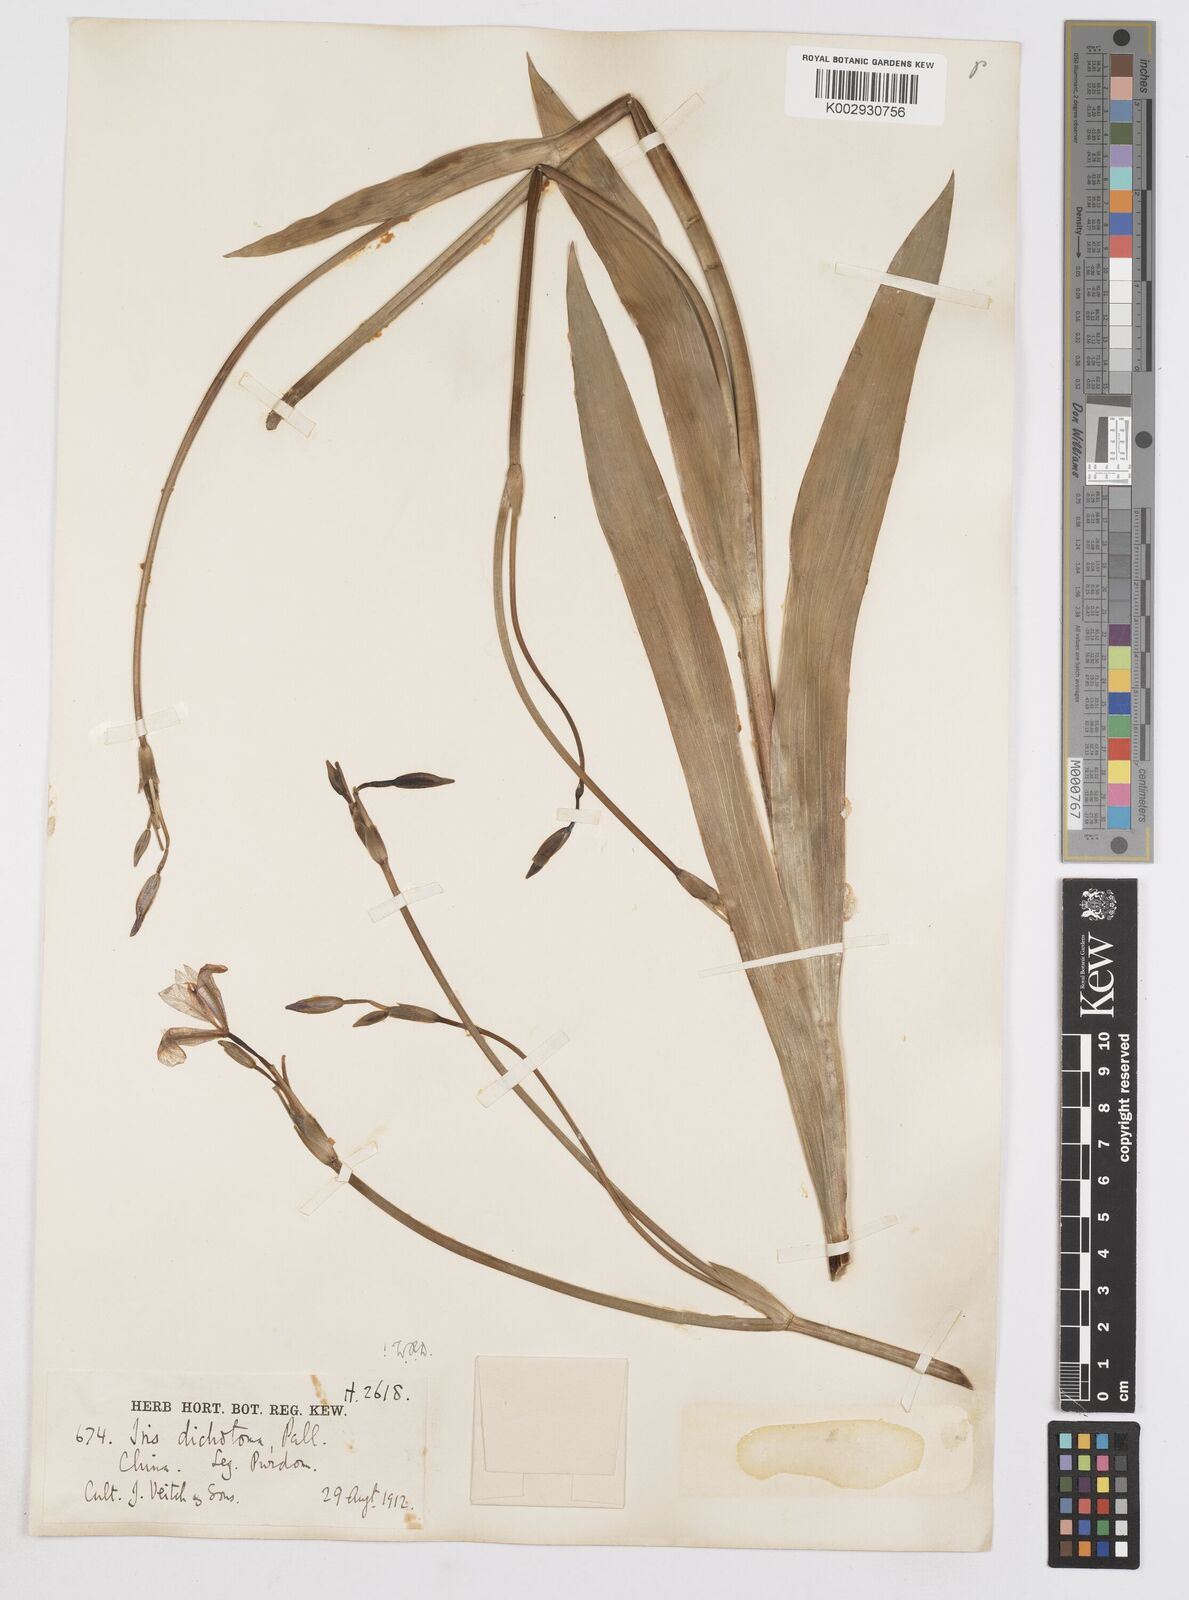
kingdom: Plantae
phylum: Tracheophyta
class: Liliopsida
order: Asparagales
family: Iridaceae
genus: Iris
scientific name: Iris dichotoma
